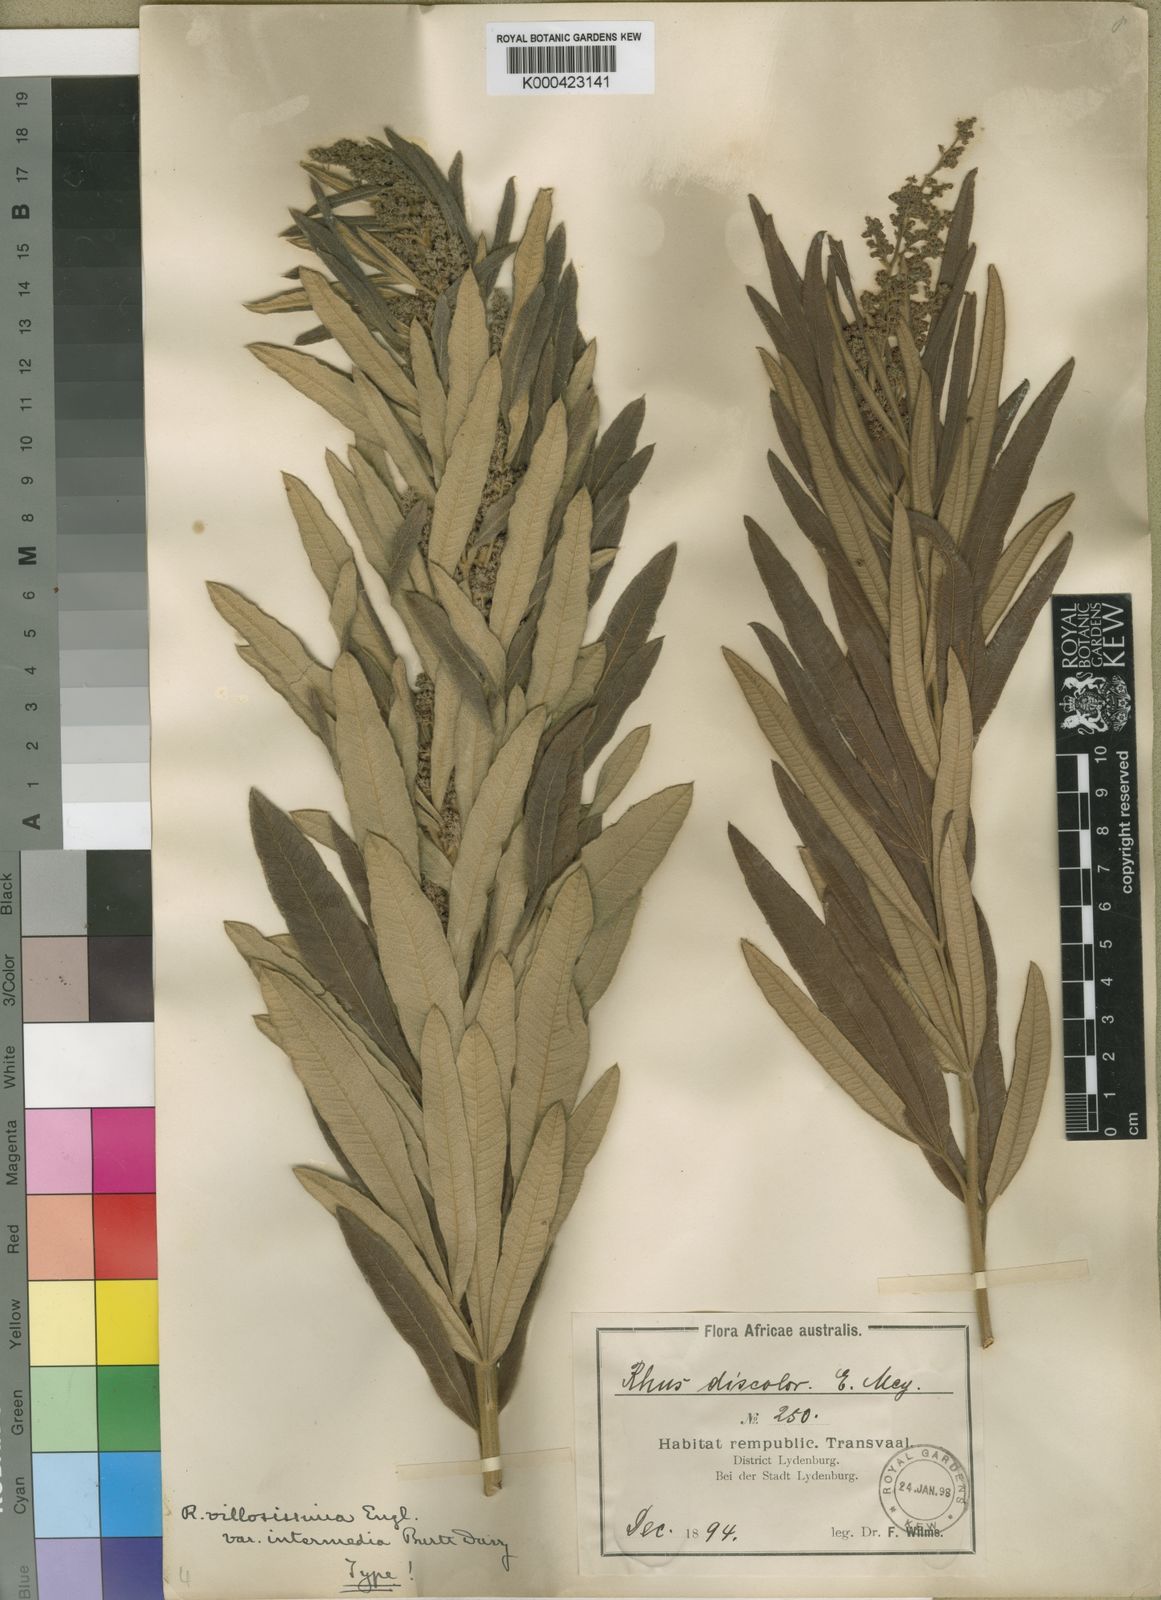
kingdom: Plantae
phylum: Tracheophyta
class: Magnoliopsida
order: Sapindales
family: Anacardiaceae
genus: Rhus
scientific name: Rhus
